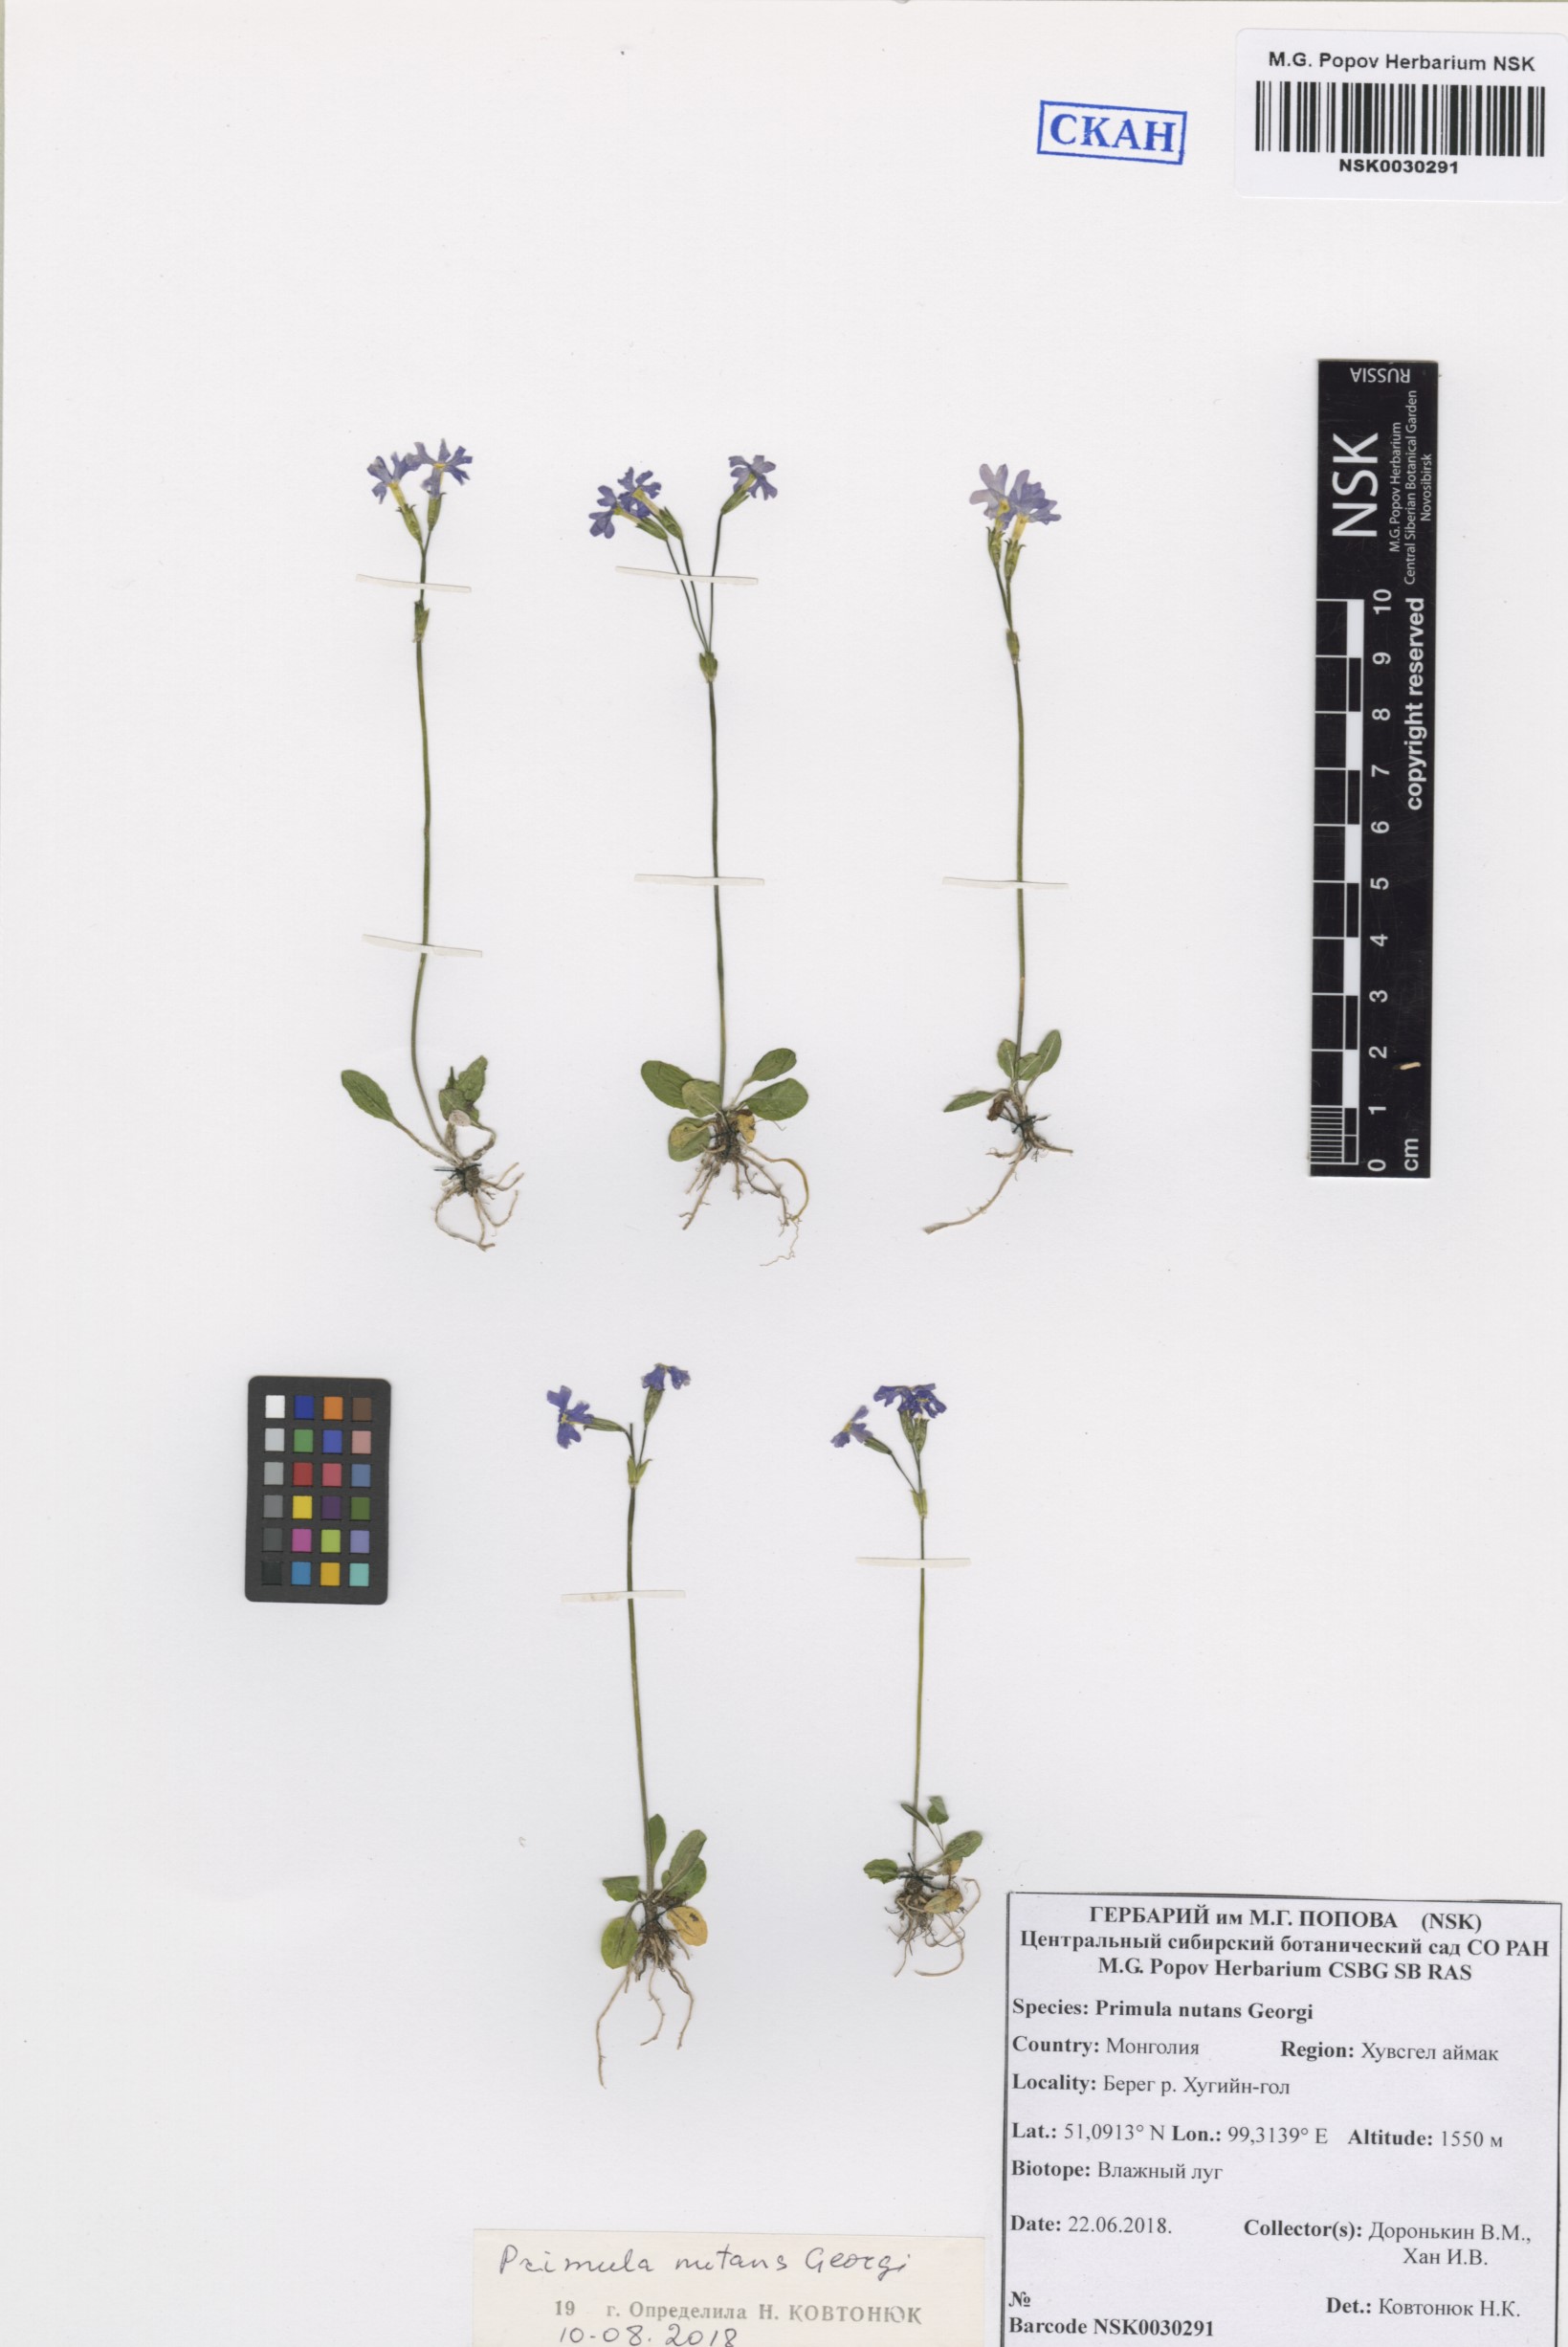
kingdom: Plantae
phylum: Tracheophyta
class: Magnoliopsida
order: Ericales
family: Primulaceae
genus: Primula
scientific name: Primula nutans
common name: Siberian primrose
